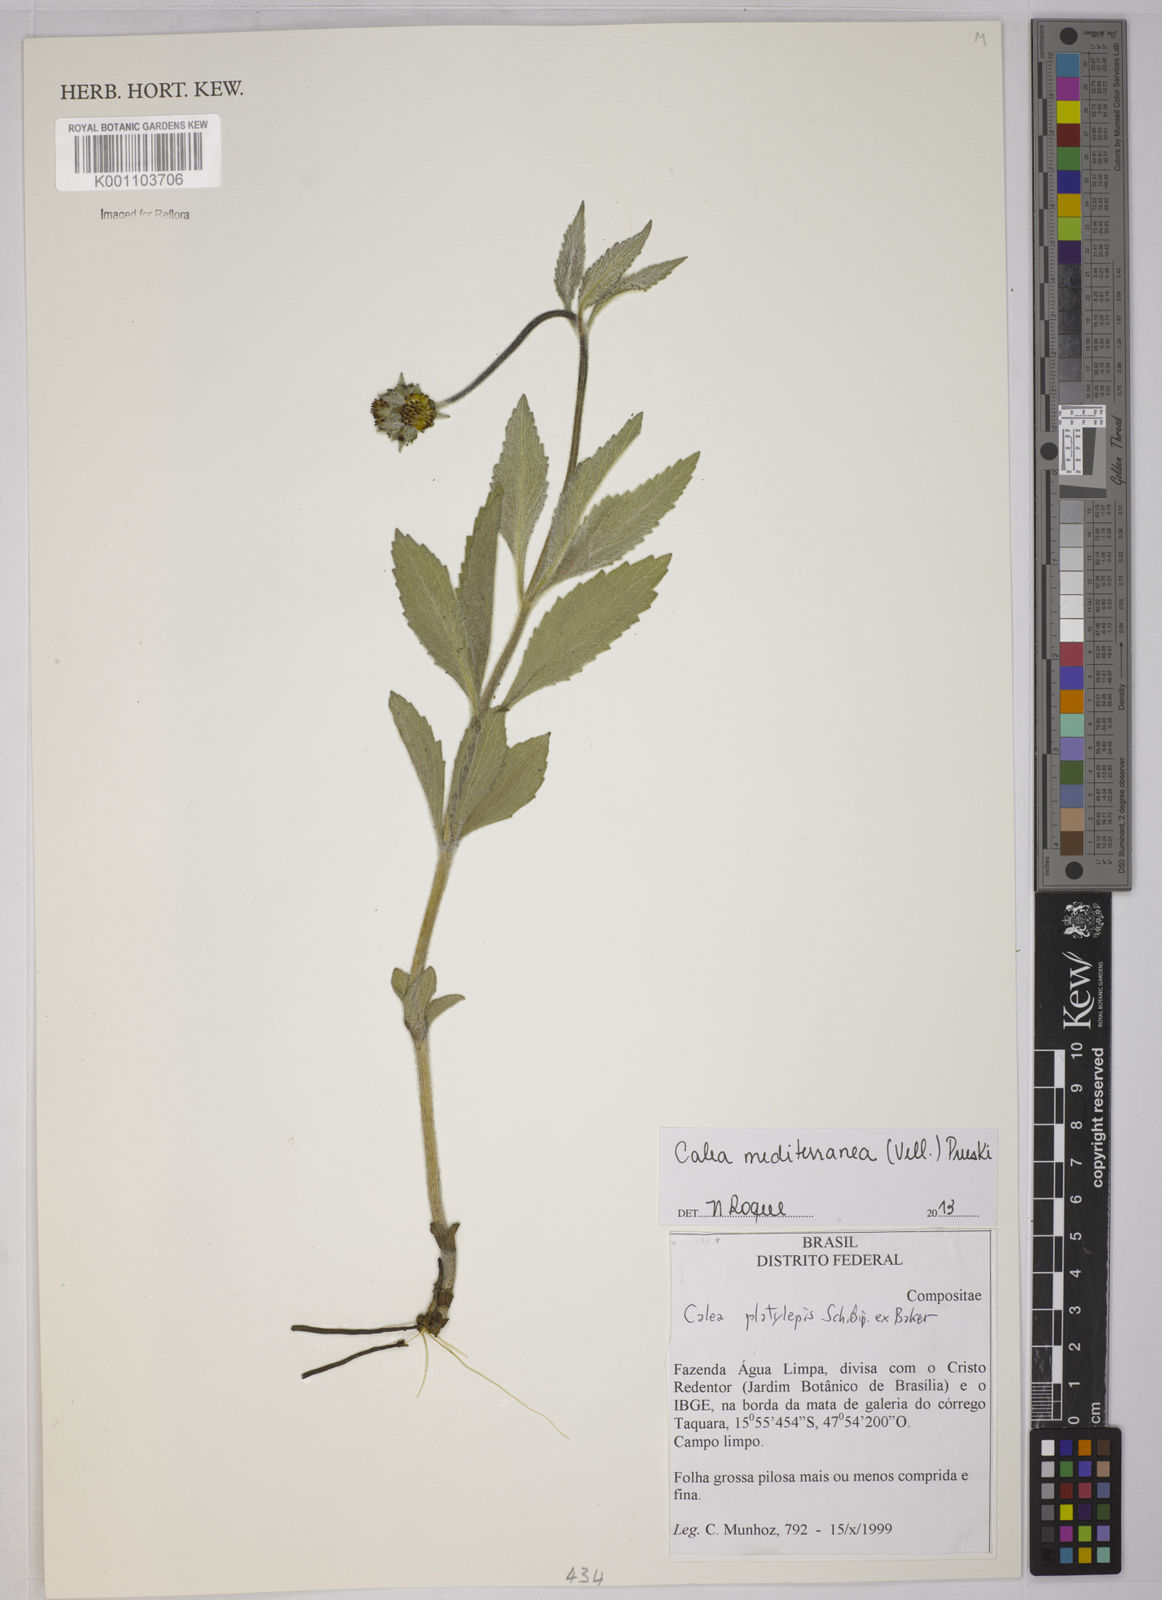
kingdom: Plantae
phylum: Tracheophyta
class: Magnoliopsida
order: Asterales
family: Asteraceae
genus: Calea
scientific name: Calea mediterranea
